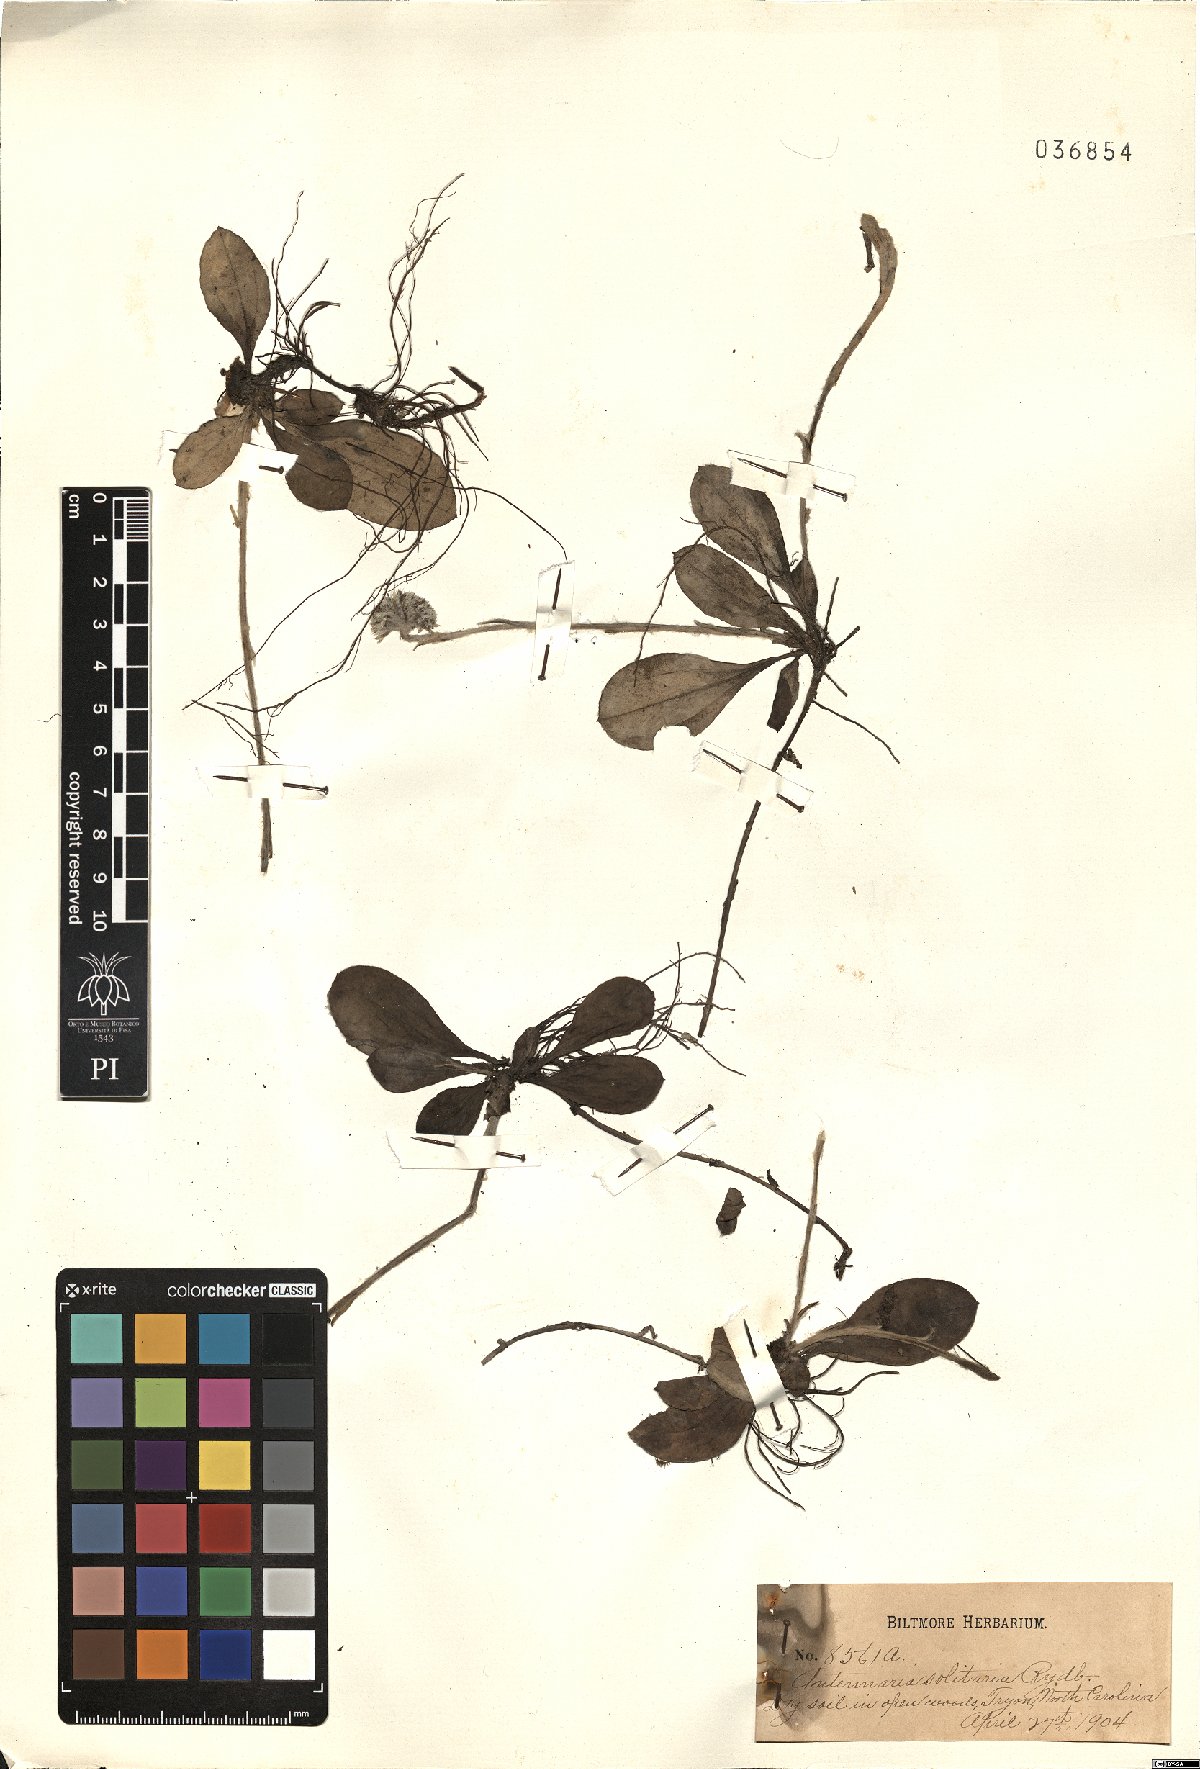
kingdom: Plantae
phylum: Tracheophyta
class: Magnoliopsida
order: Asterales
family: Asteraceae
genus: Antennaria
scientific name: Antennaria solitaria
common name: Single-head pussytoes
